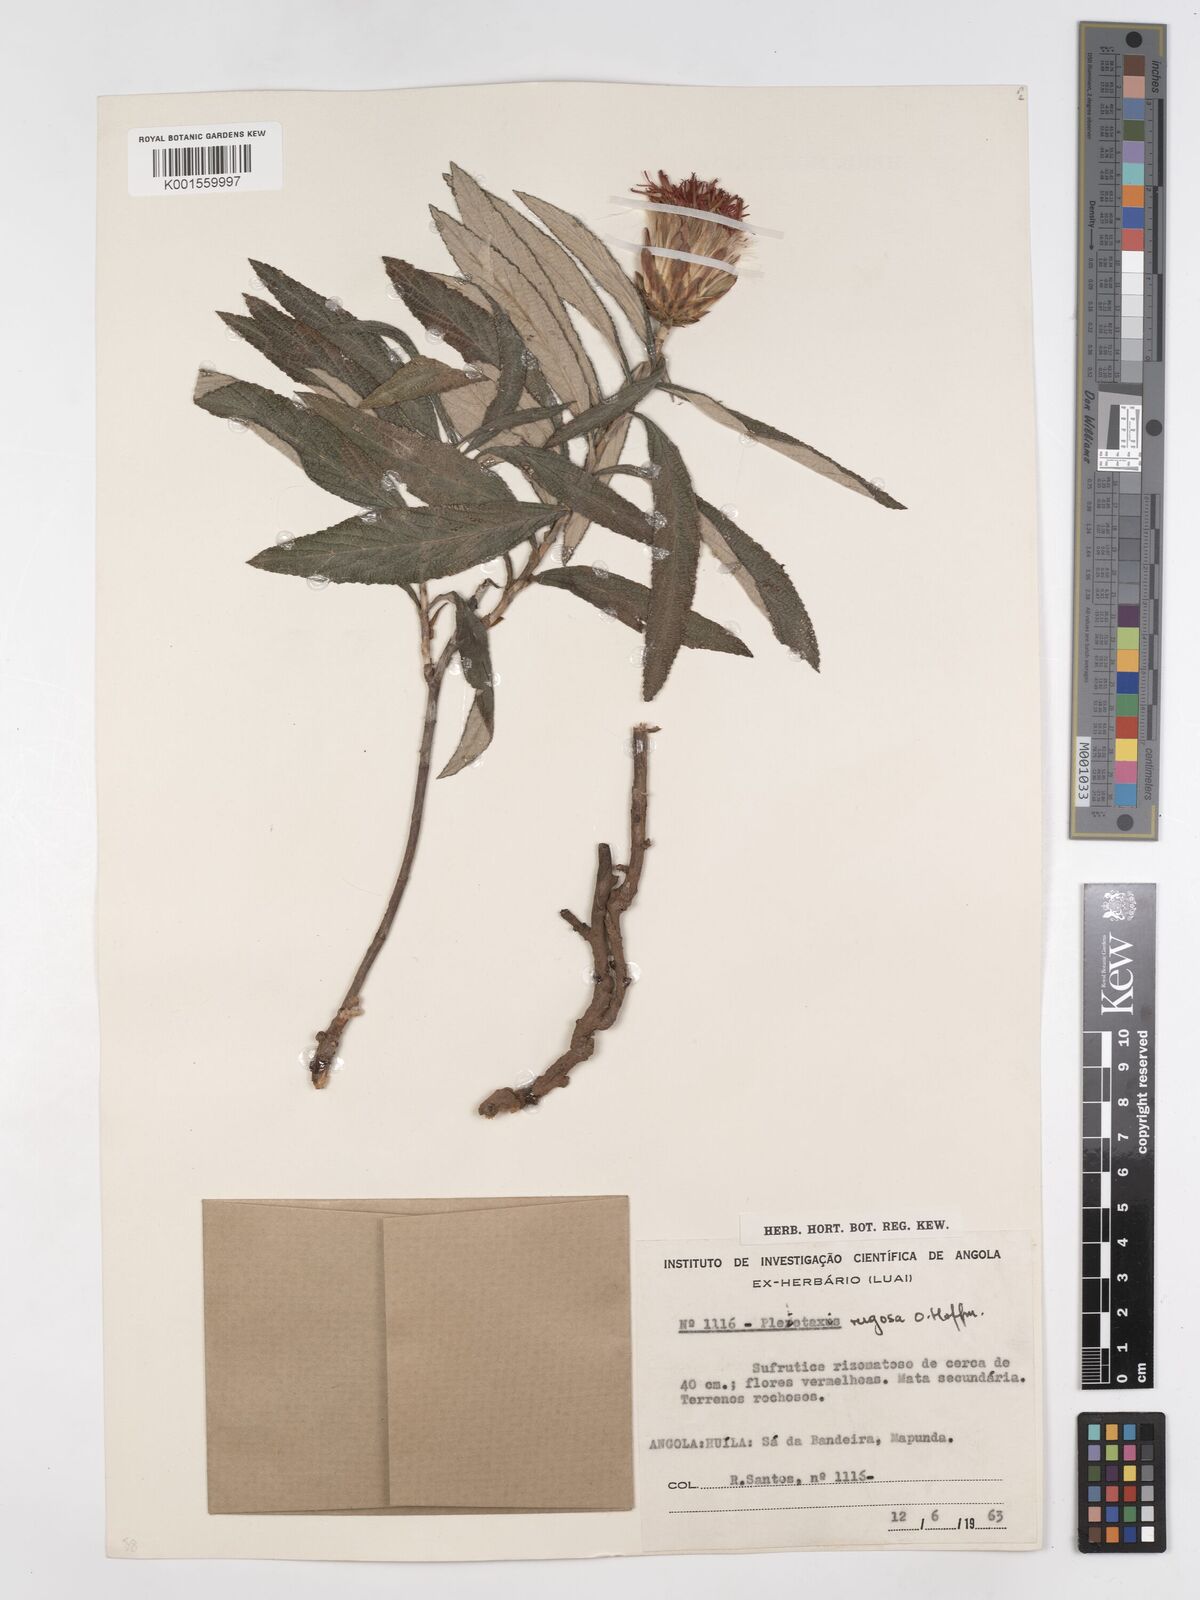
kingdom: Plantae
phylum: Tracheophyta
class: Magnoliopsida
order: Asterales
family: Asteraceae
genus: Pleiotaxis
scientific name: Pleiotaxis rugosa
